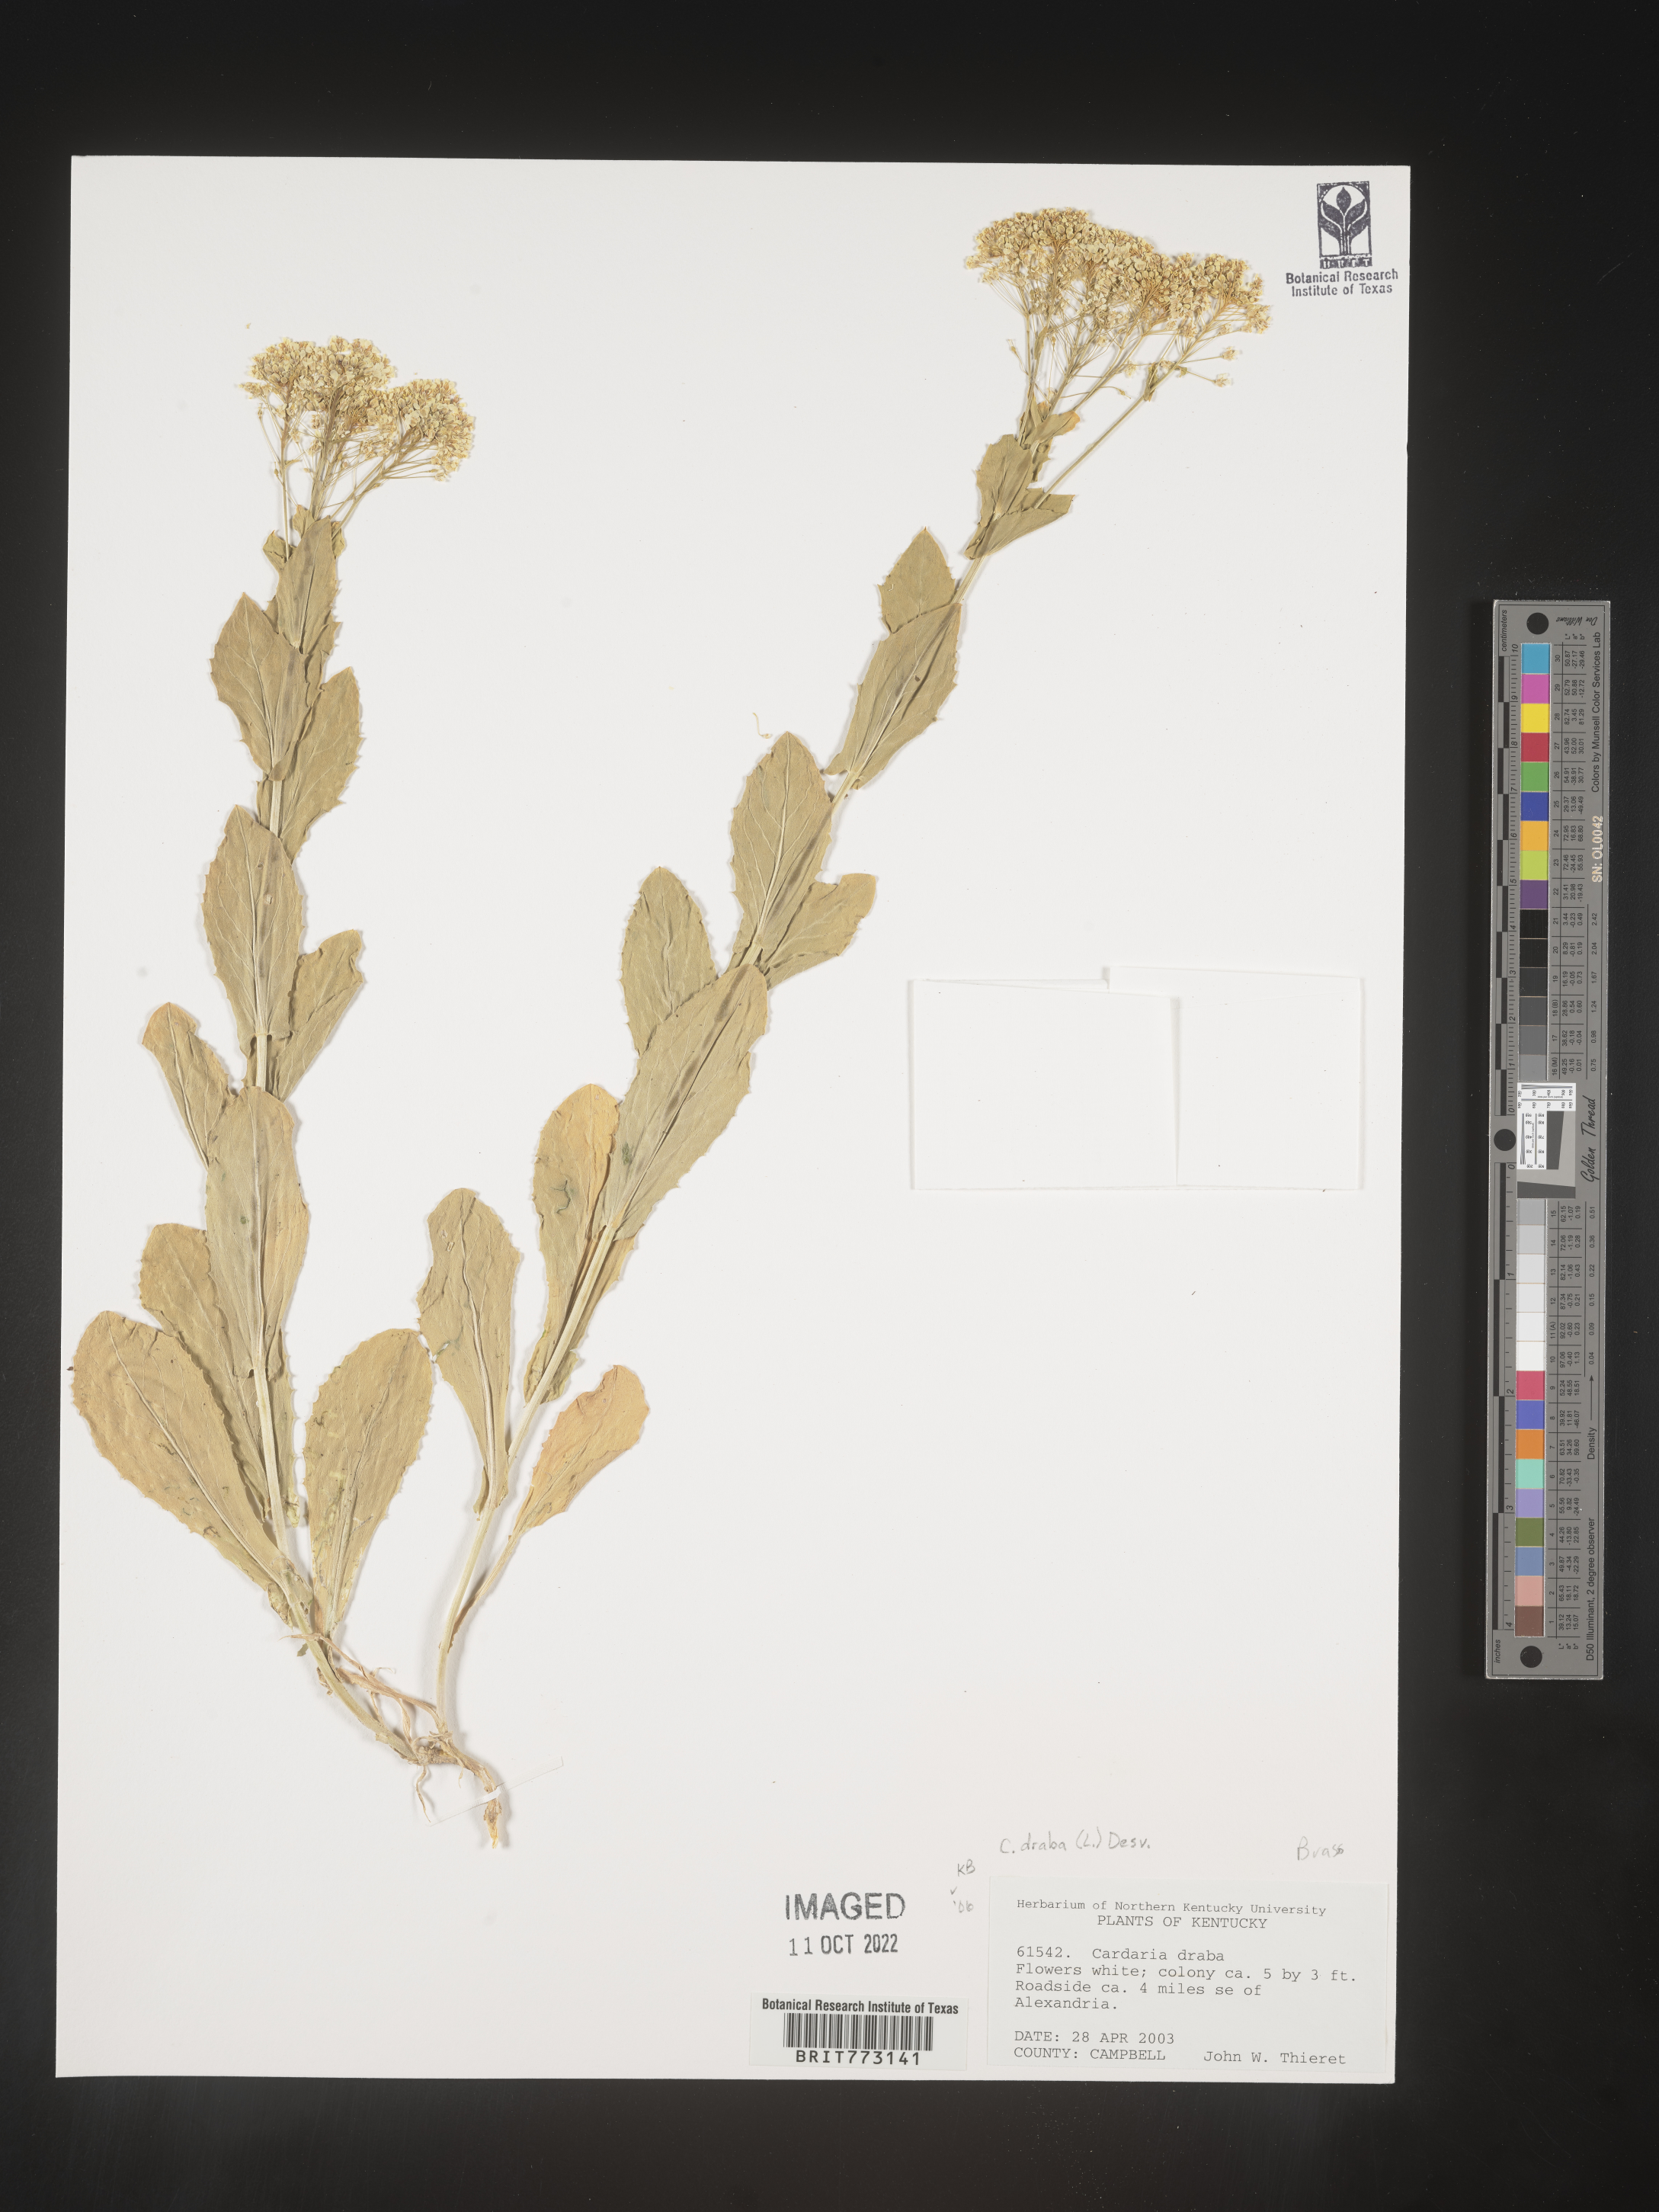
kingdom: Plantae
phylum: Tracheophyta
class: Magnoliopsida
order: Brassicales
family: Brassicaceae
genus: Cardamine
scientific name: Cardamine
